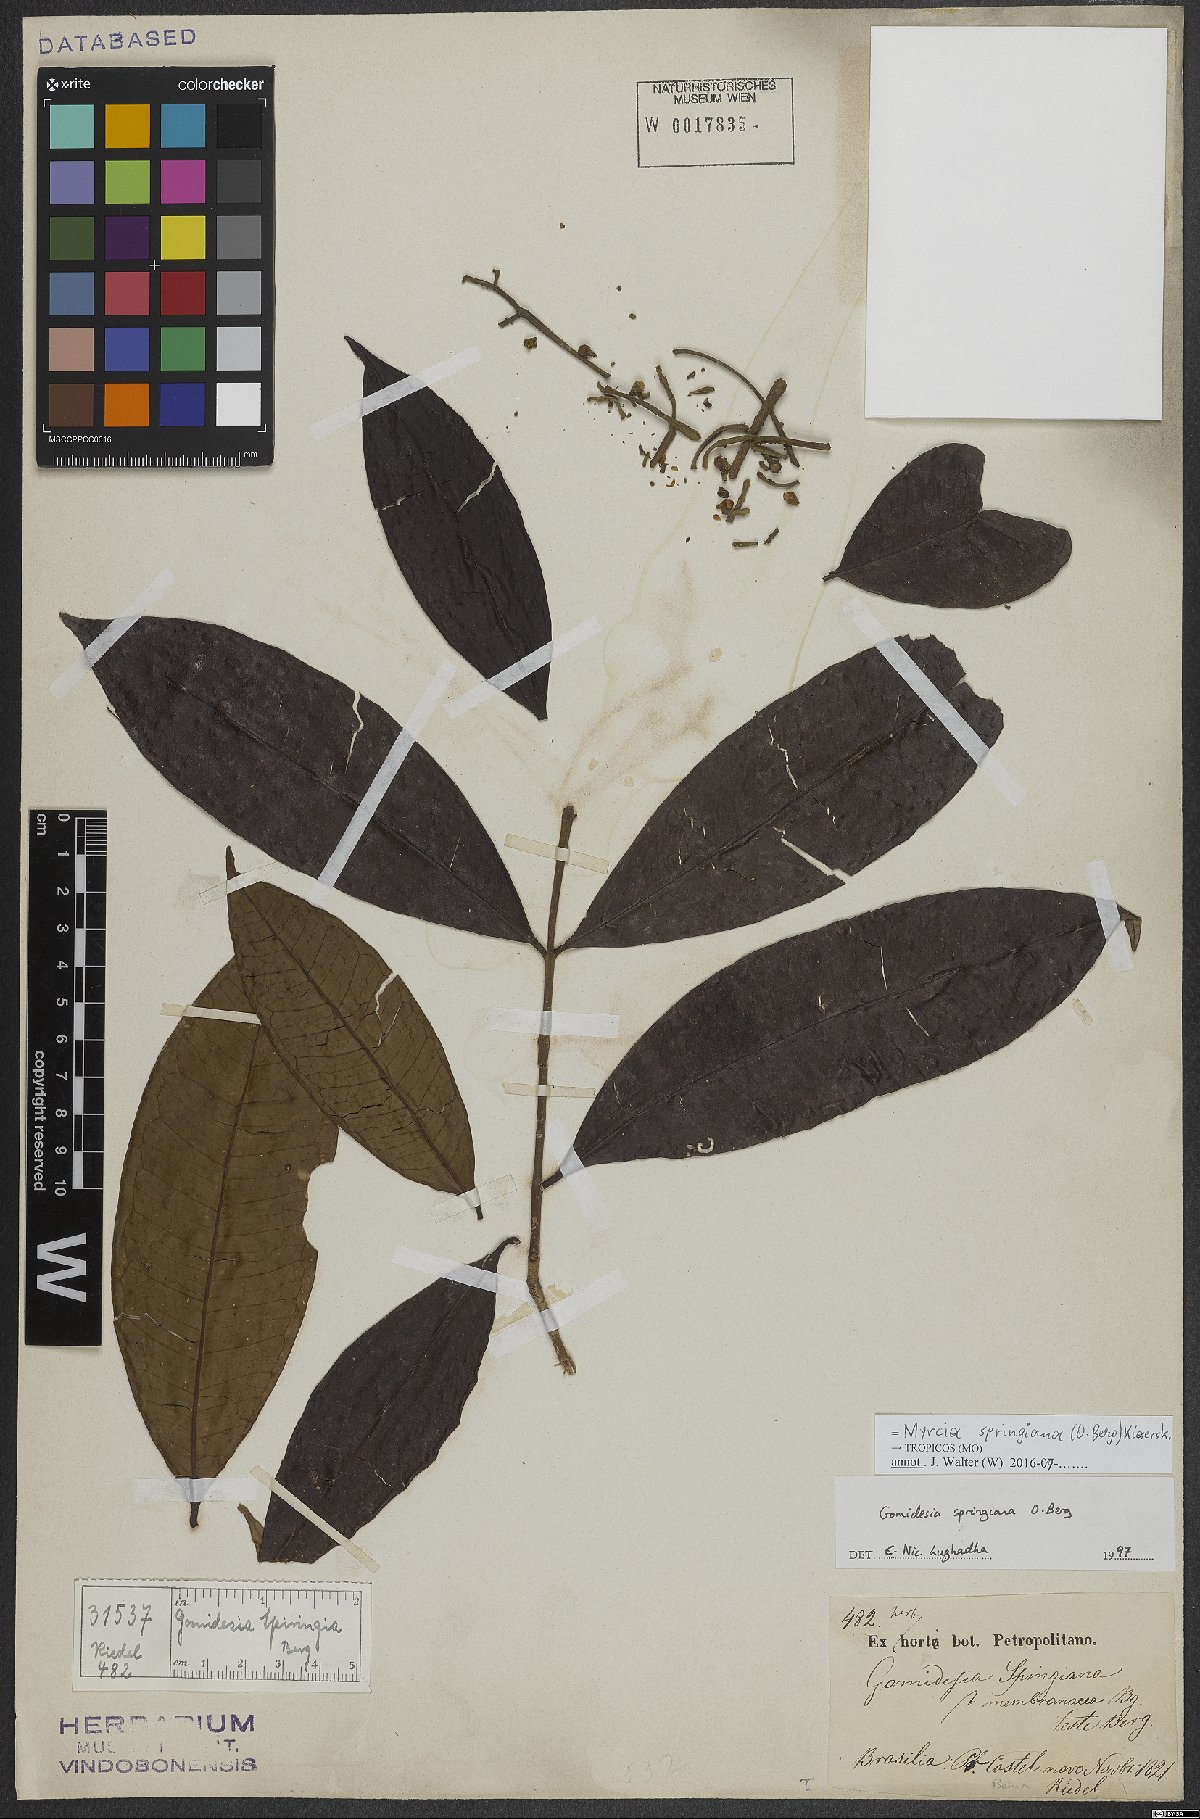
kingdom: Plantae
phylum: Tracheophyta
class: Magnoliopsida
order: Myrtales
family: Myrtaceae
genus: Myrcia
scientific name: Myrcia springiana
